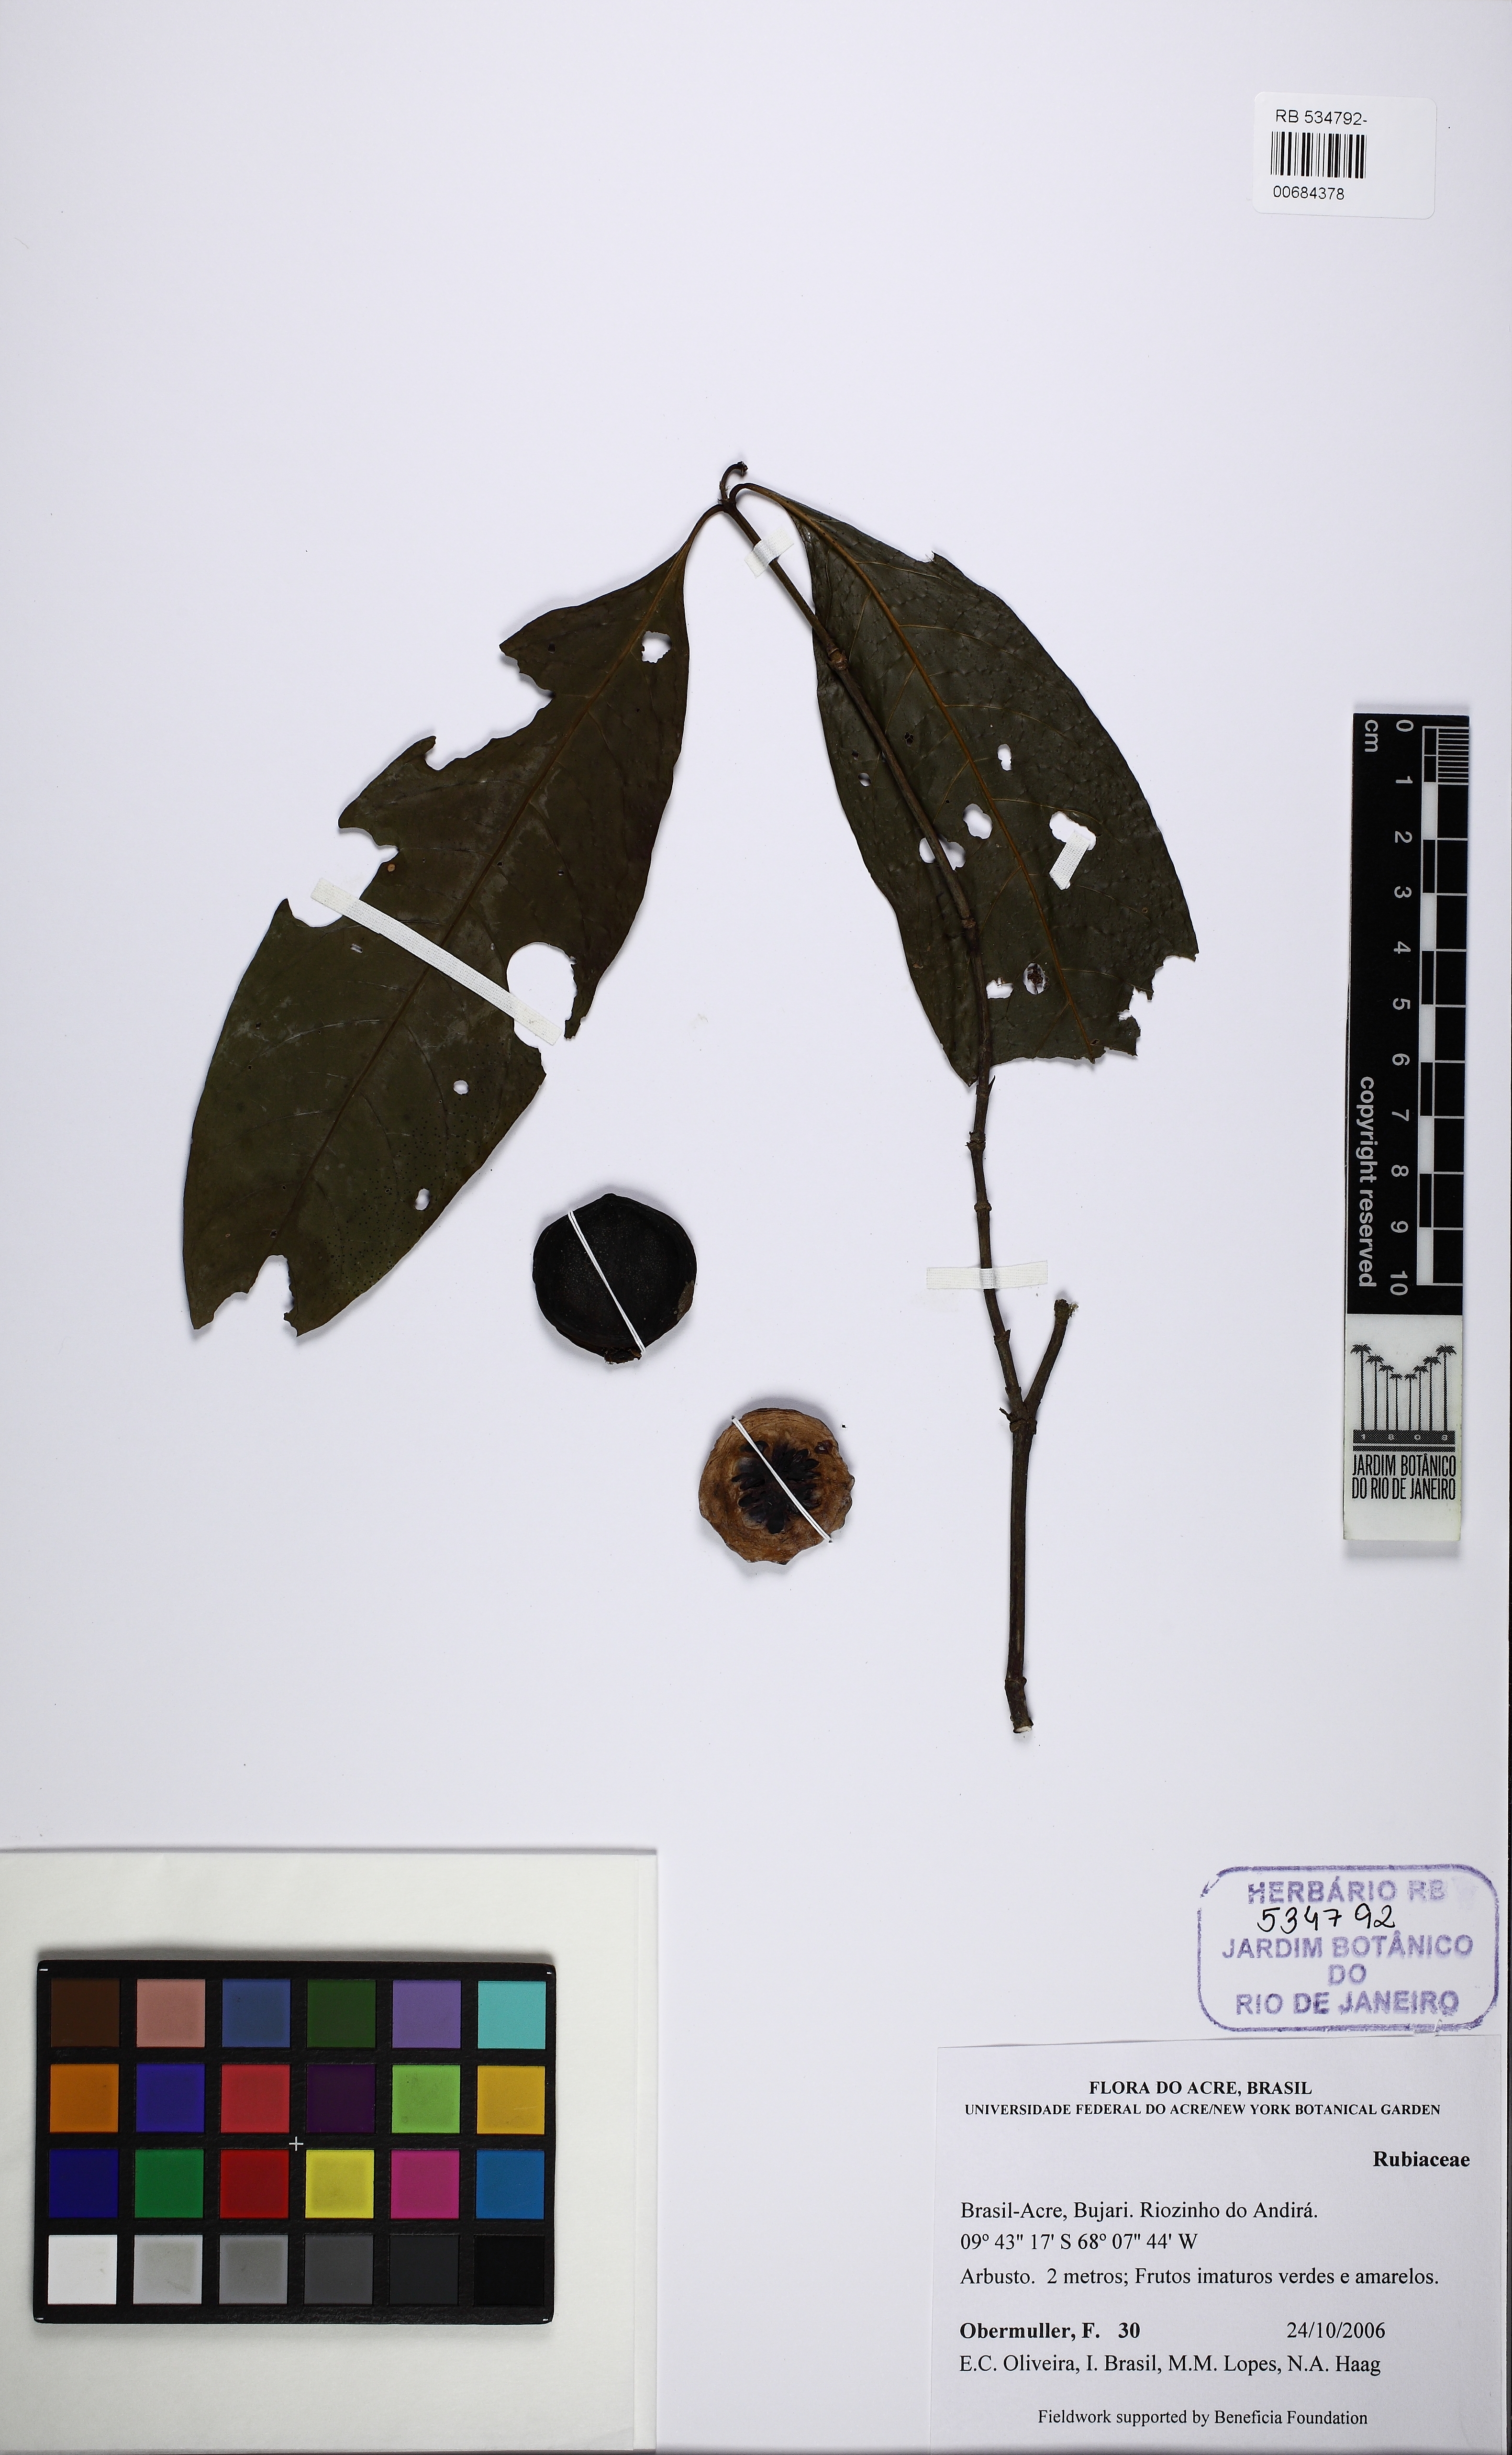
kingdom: Plantae
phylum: Tracheophyta
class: Magnoliopsida
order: Gentianales
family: Rubiaceae
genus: Sphinctanthus
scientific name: Sphinctanthus
